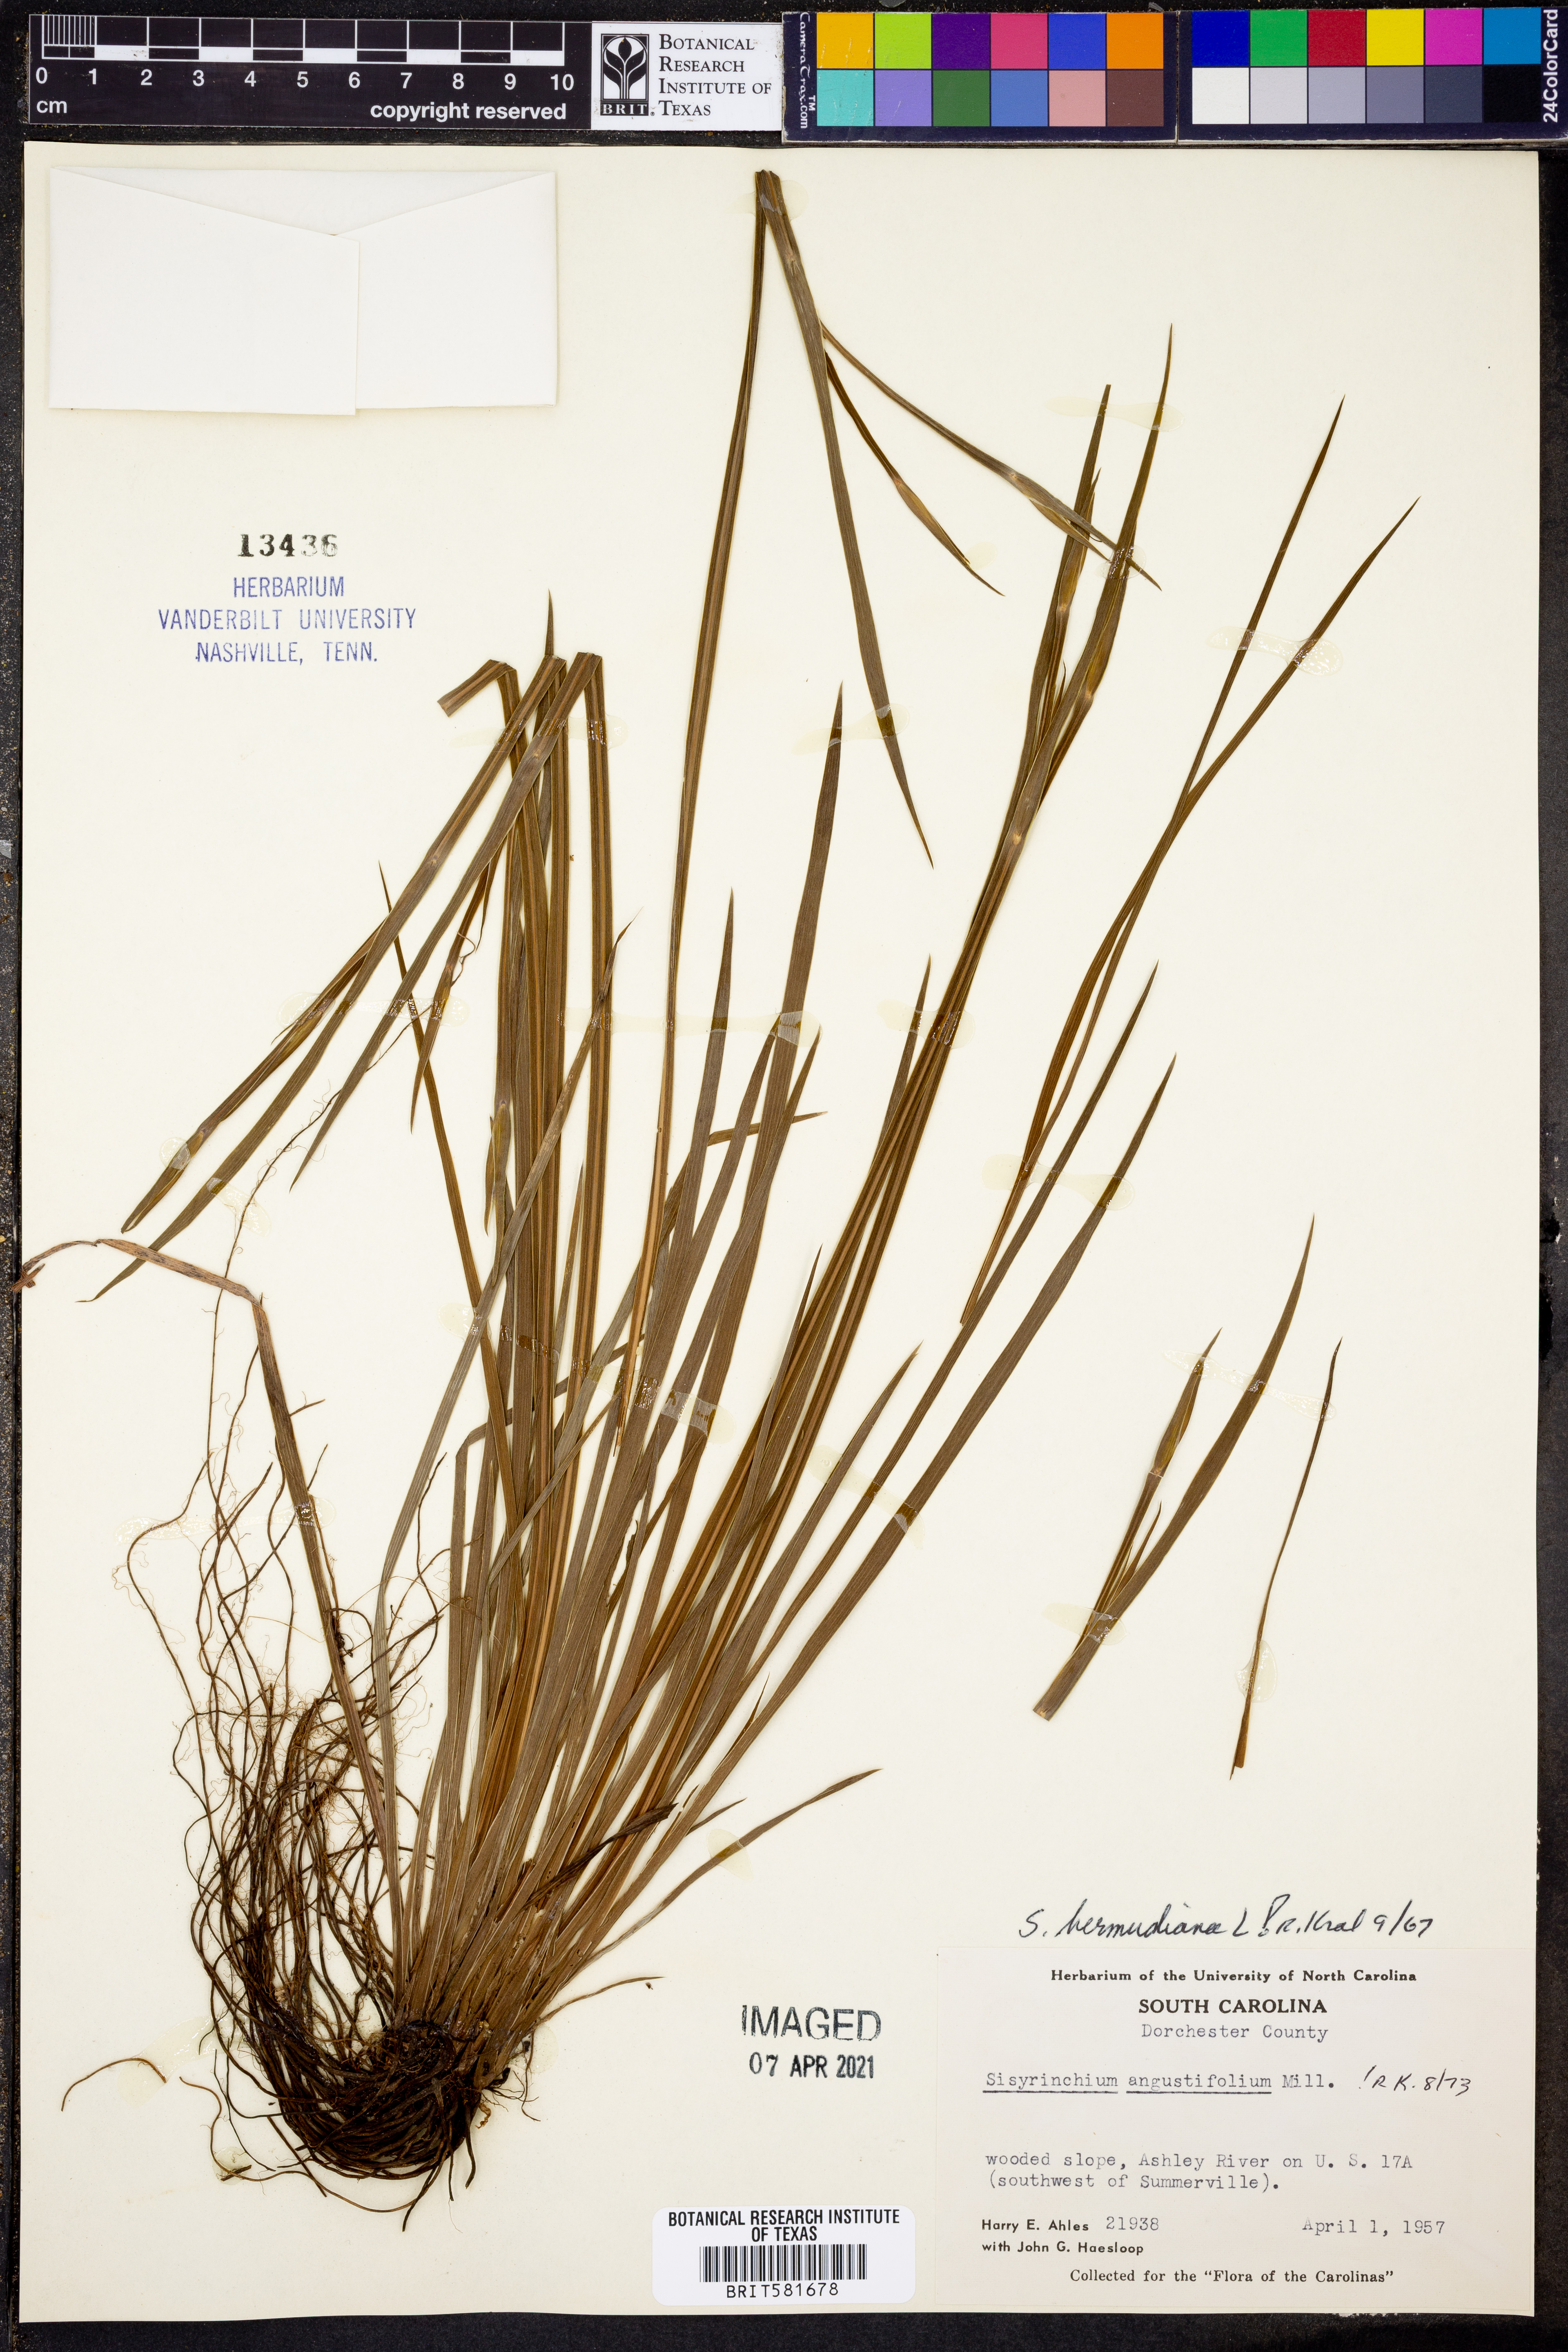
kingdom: Plantae
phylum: Tracheophyta
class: Liliopsida
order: Asparagales
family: Iridaceae
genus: Sisyrinchium
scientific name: Sisyrinchium bermudiana
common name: Blue-eyed-grass
